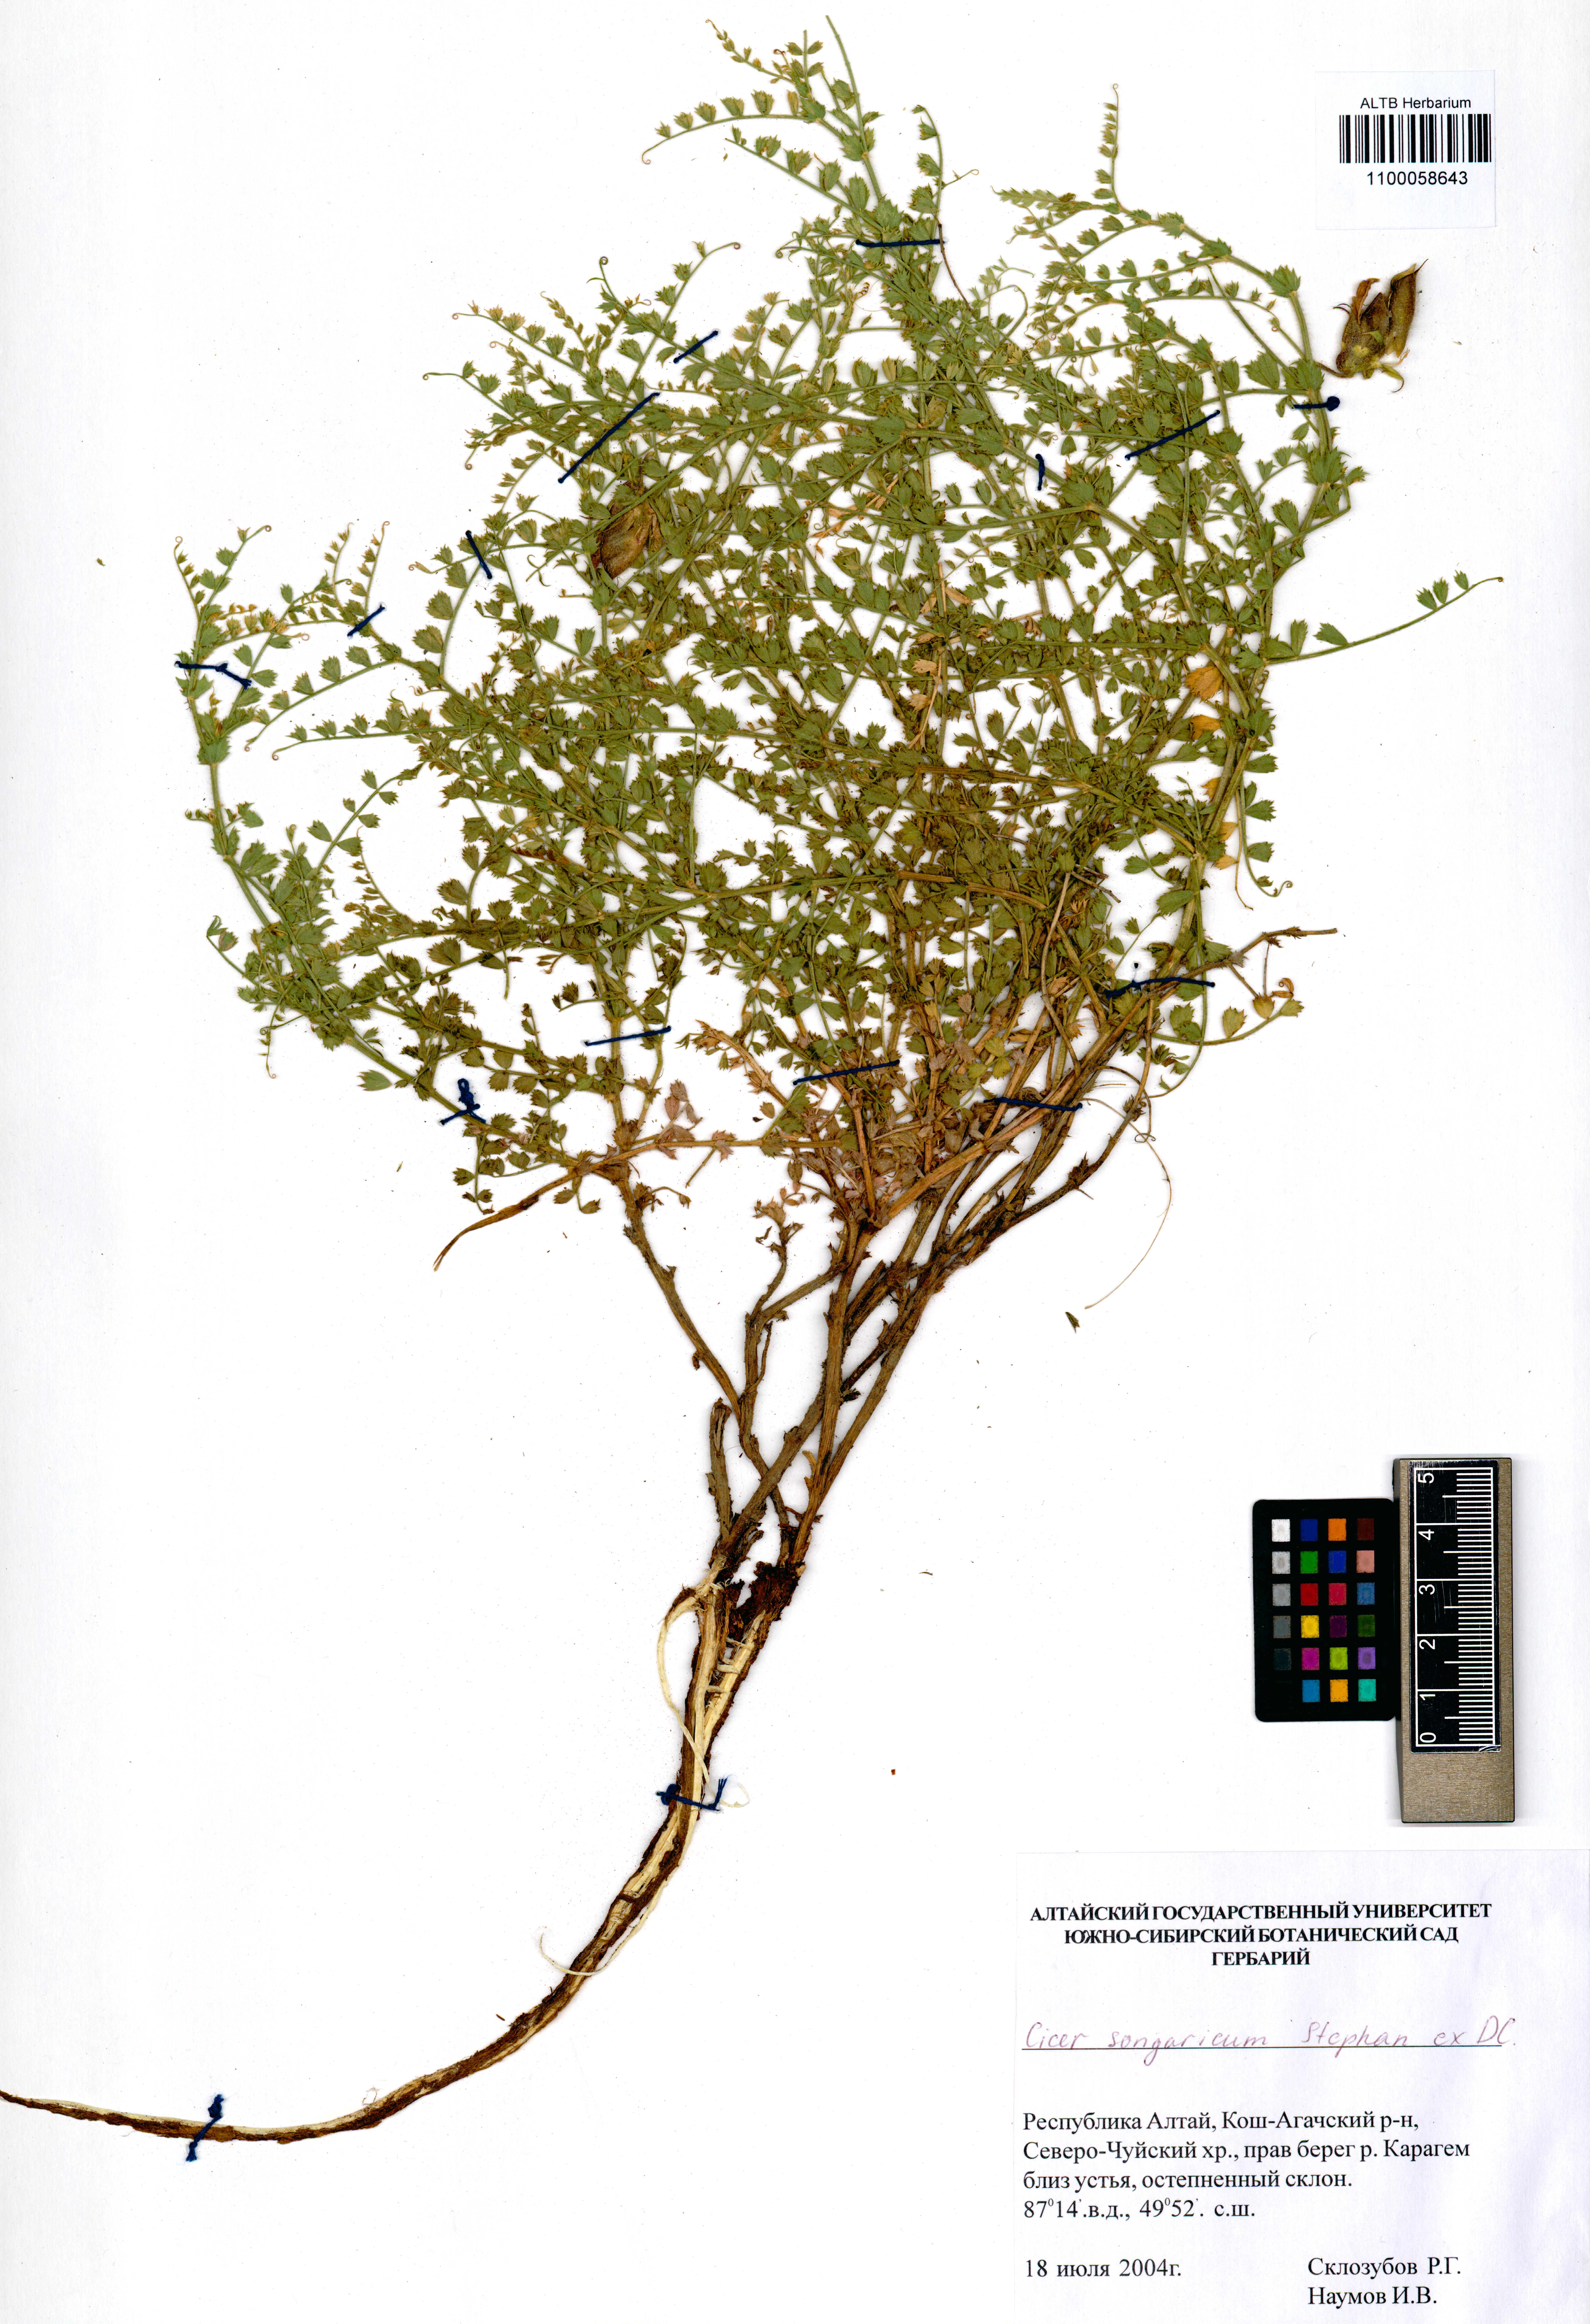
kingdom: Plantae
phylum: Tracheophyta
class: Magnoliopsida
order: Fabales
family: Fabaceae
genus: Cicer
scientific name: Cicer songaricum
